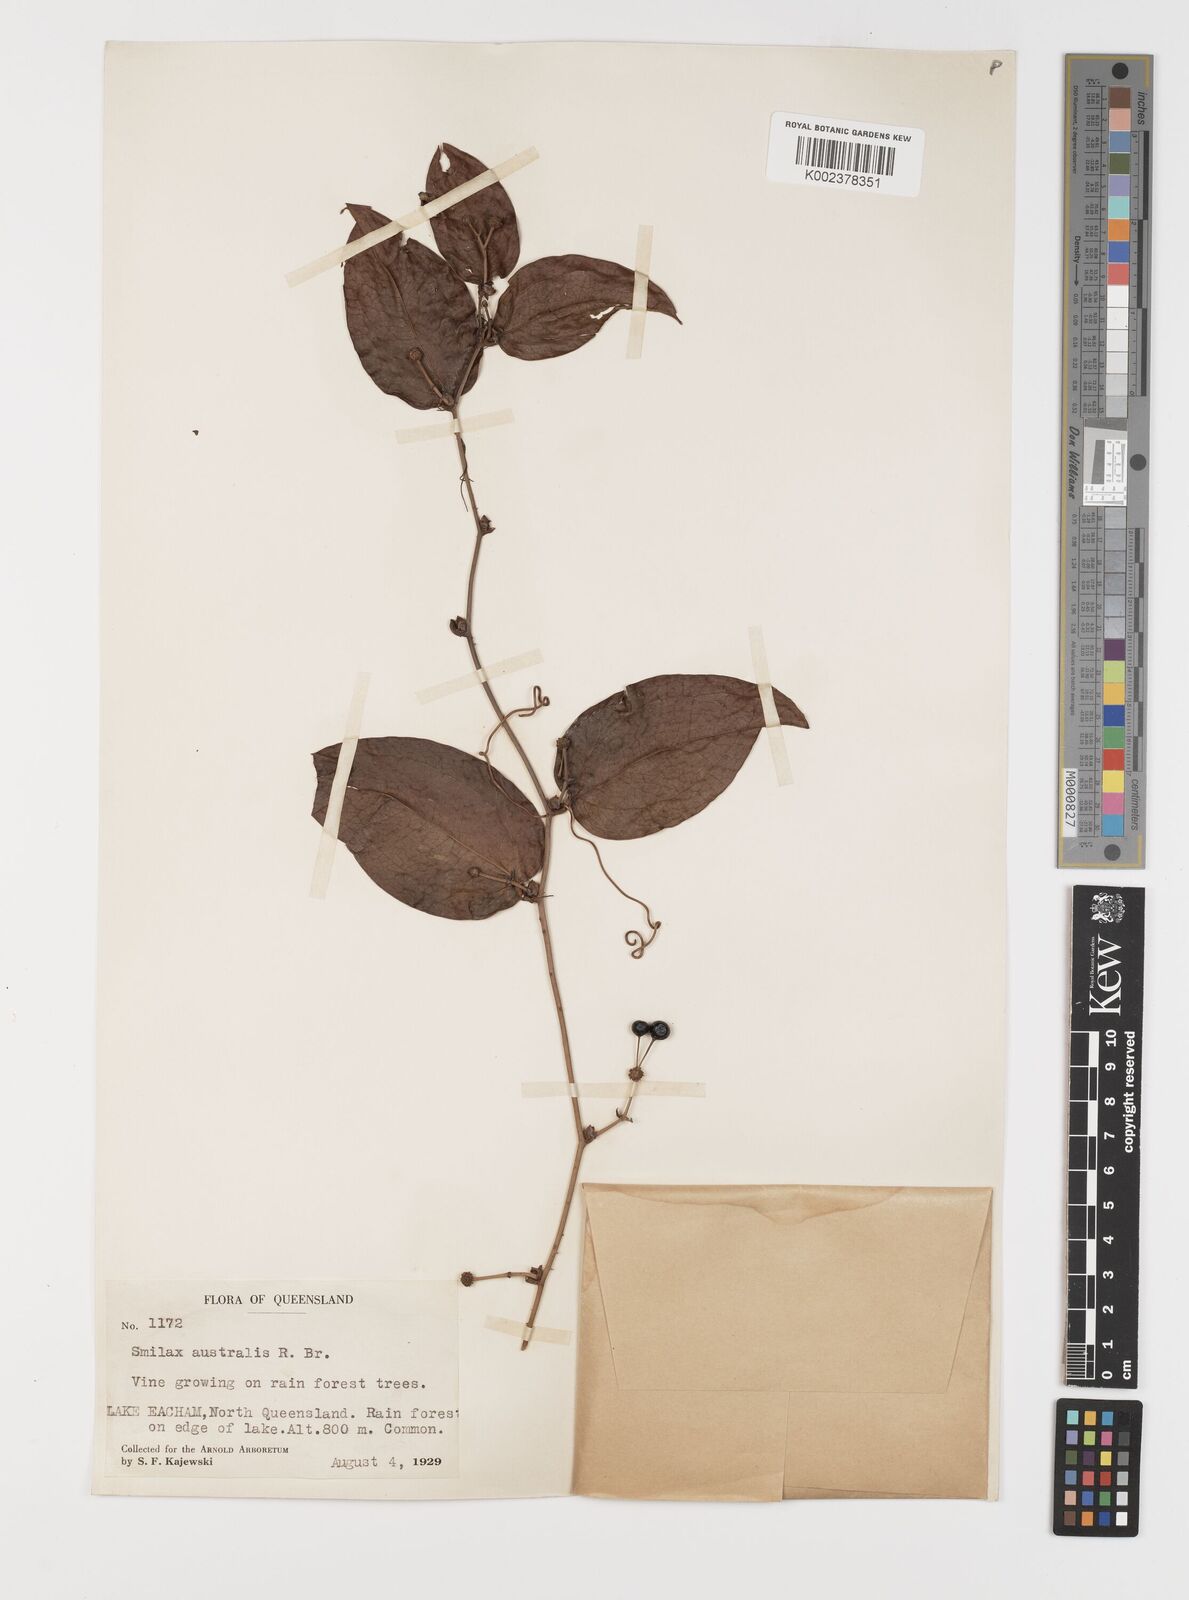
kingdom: Plantae
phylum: Tracheophyta
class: Liliopsida
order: Liliales
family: Smilacaceae
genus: Smilax
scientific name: Smilax australis
